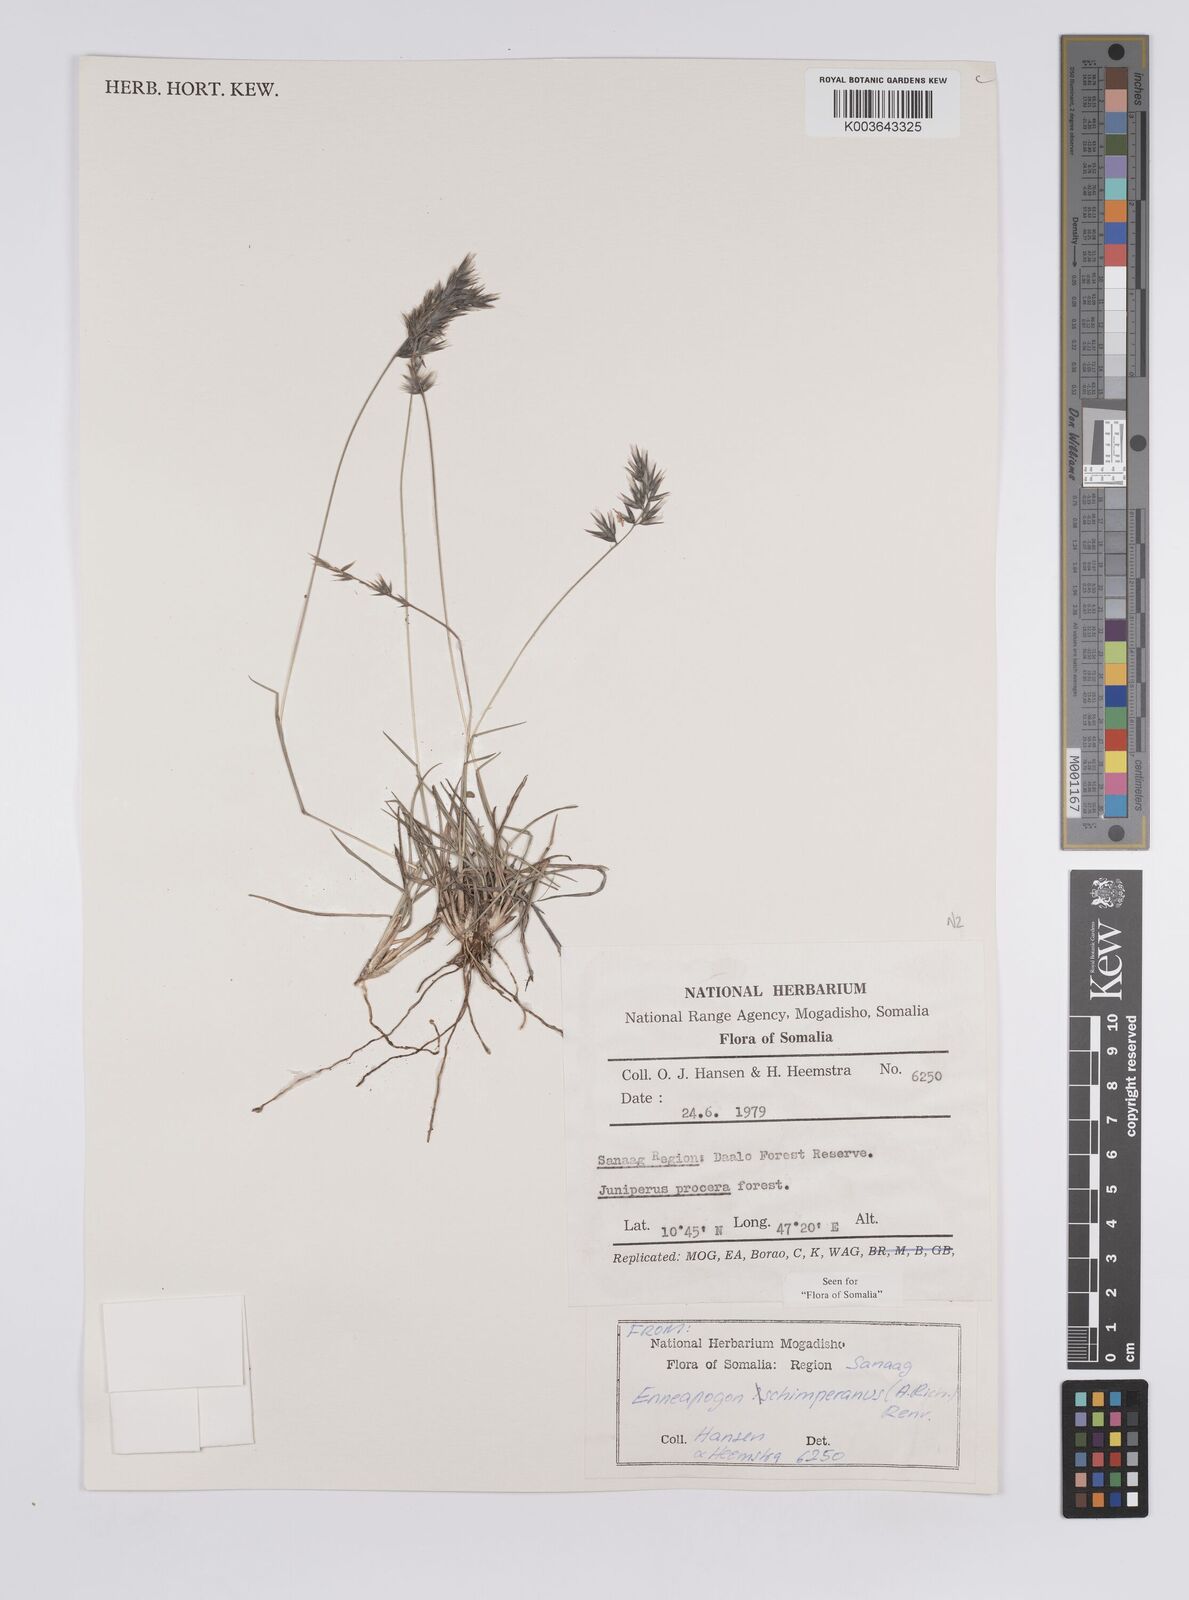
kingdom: Plantae
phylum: Tracheophyta
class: Liliopsida
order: Poales
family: Poaceae
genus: Enneapogon
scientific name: Enneapogon persicus
